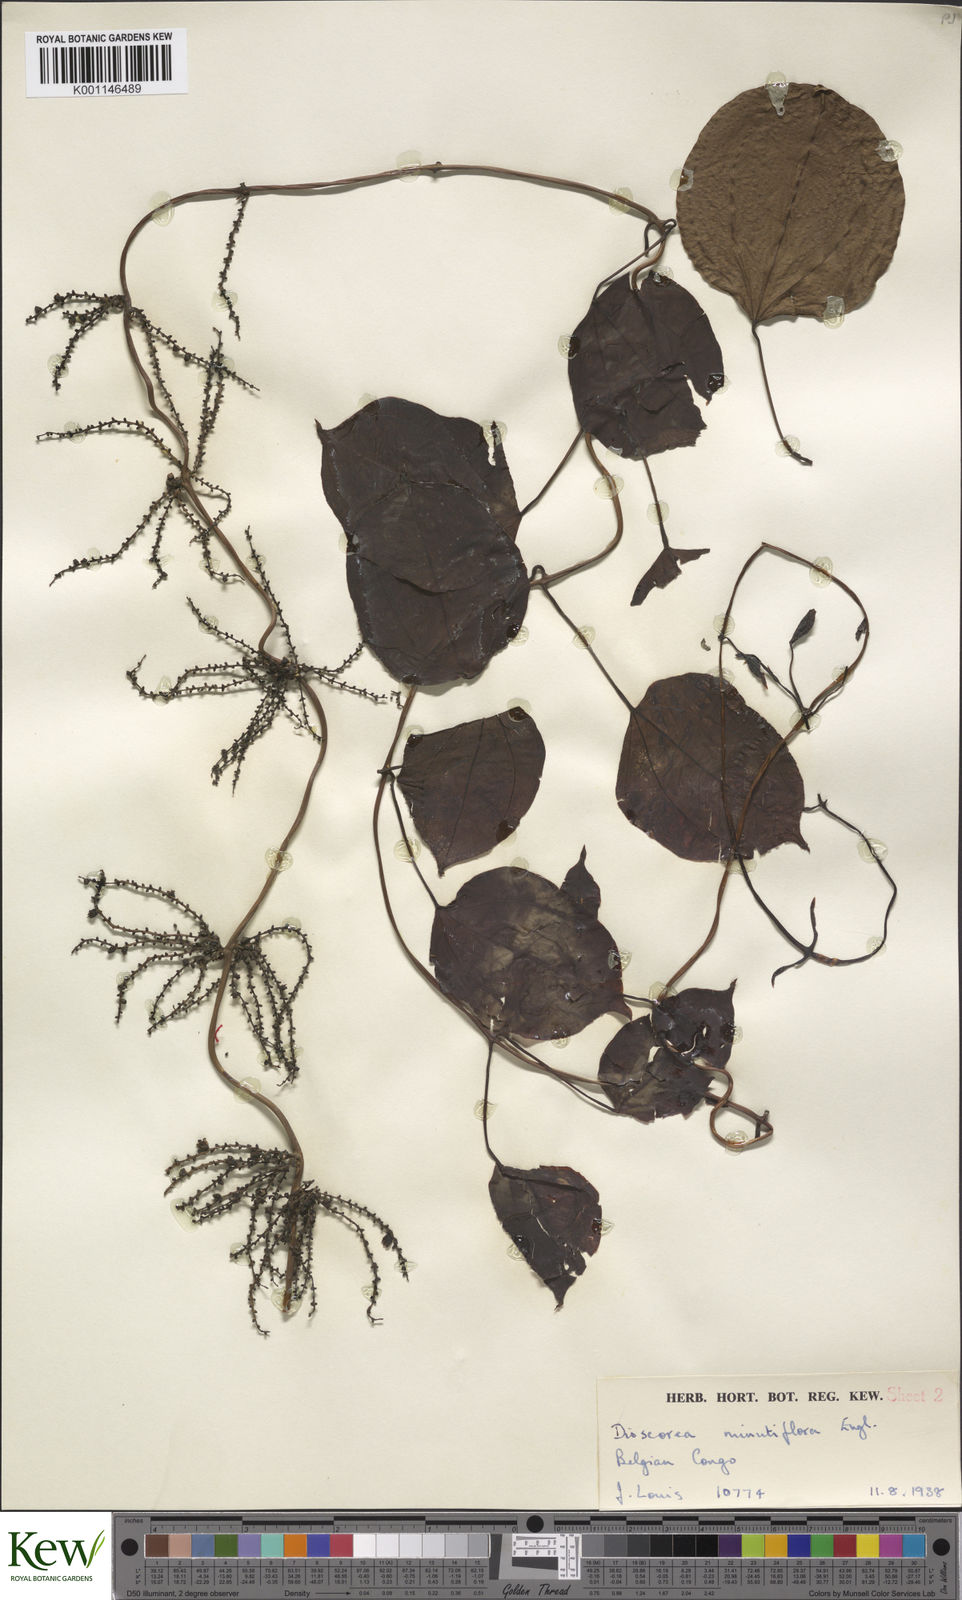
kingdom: Plantae
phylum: Tracheophyta
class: Liliopsida
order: Dioscoreales
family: Dioscoreaceae
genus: Dioscorea
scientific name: Dioscorea minutiflora
